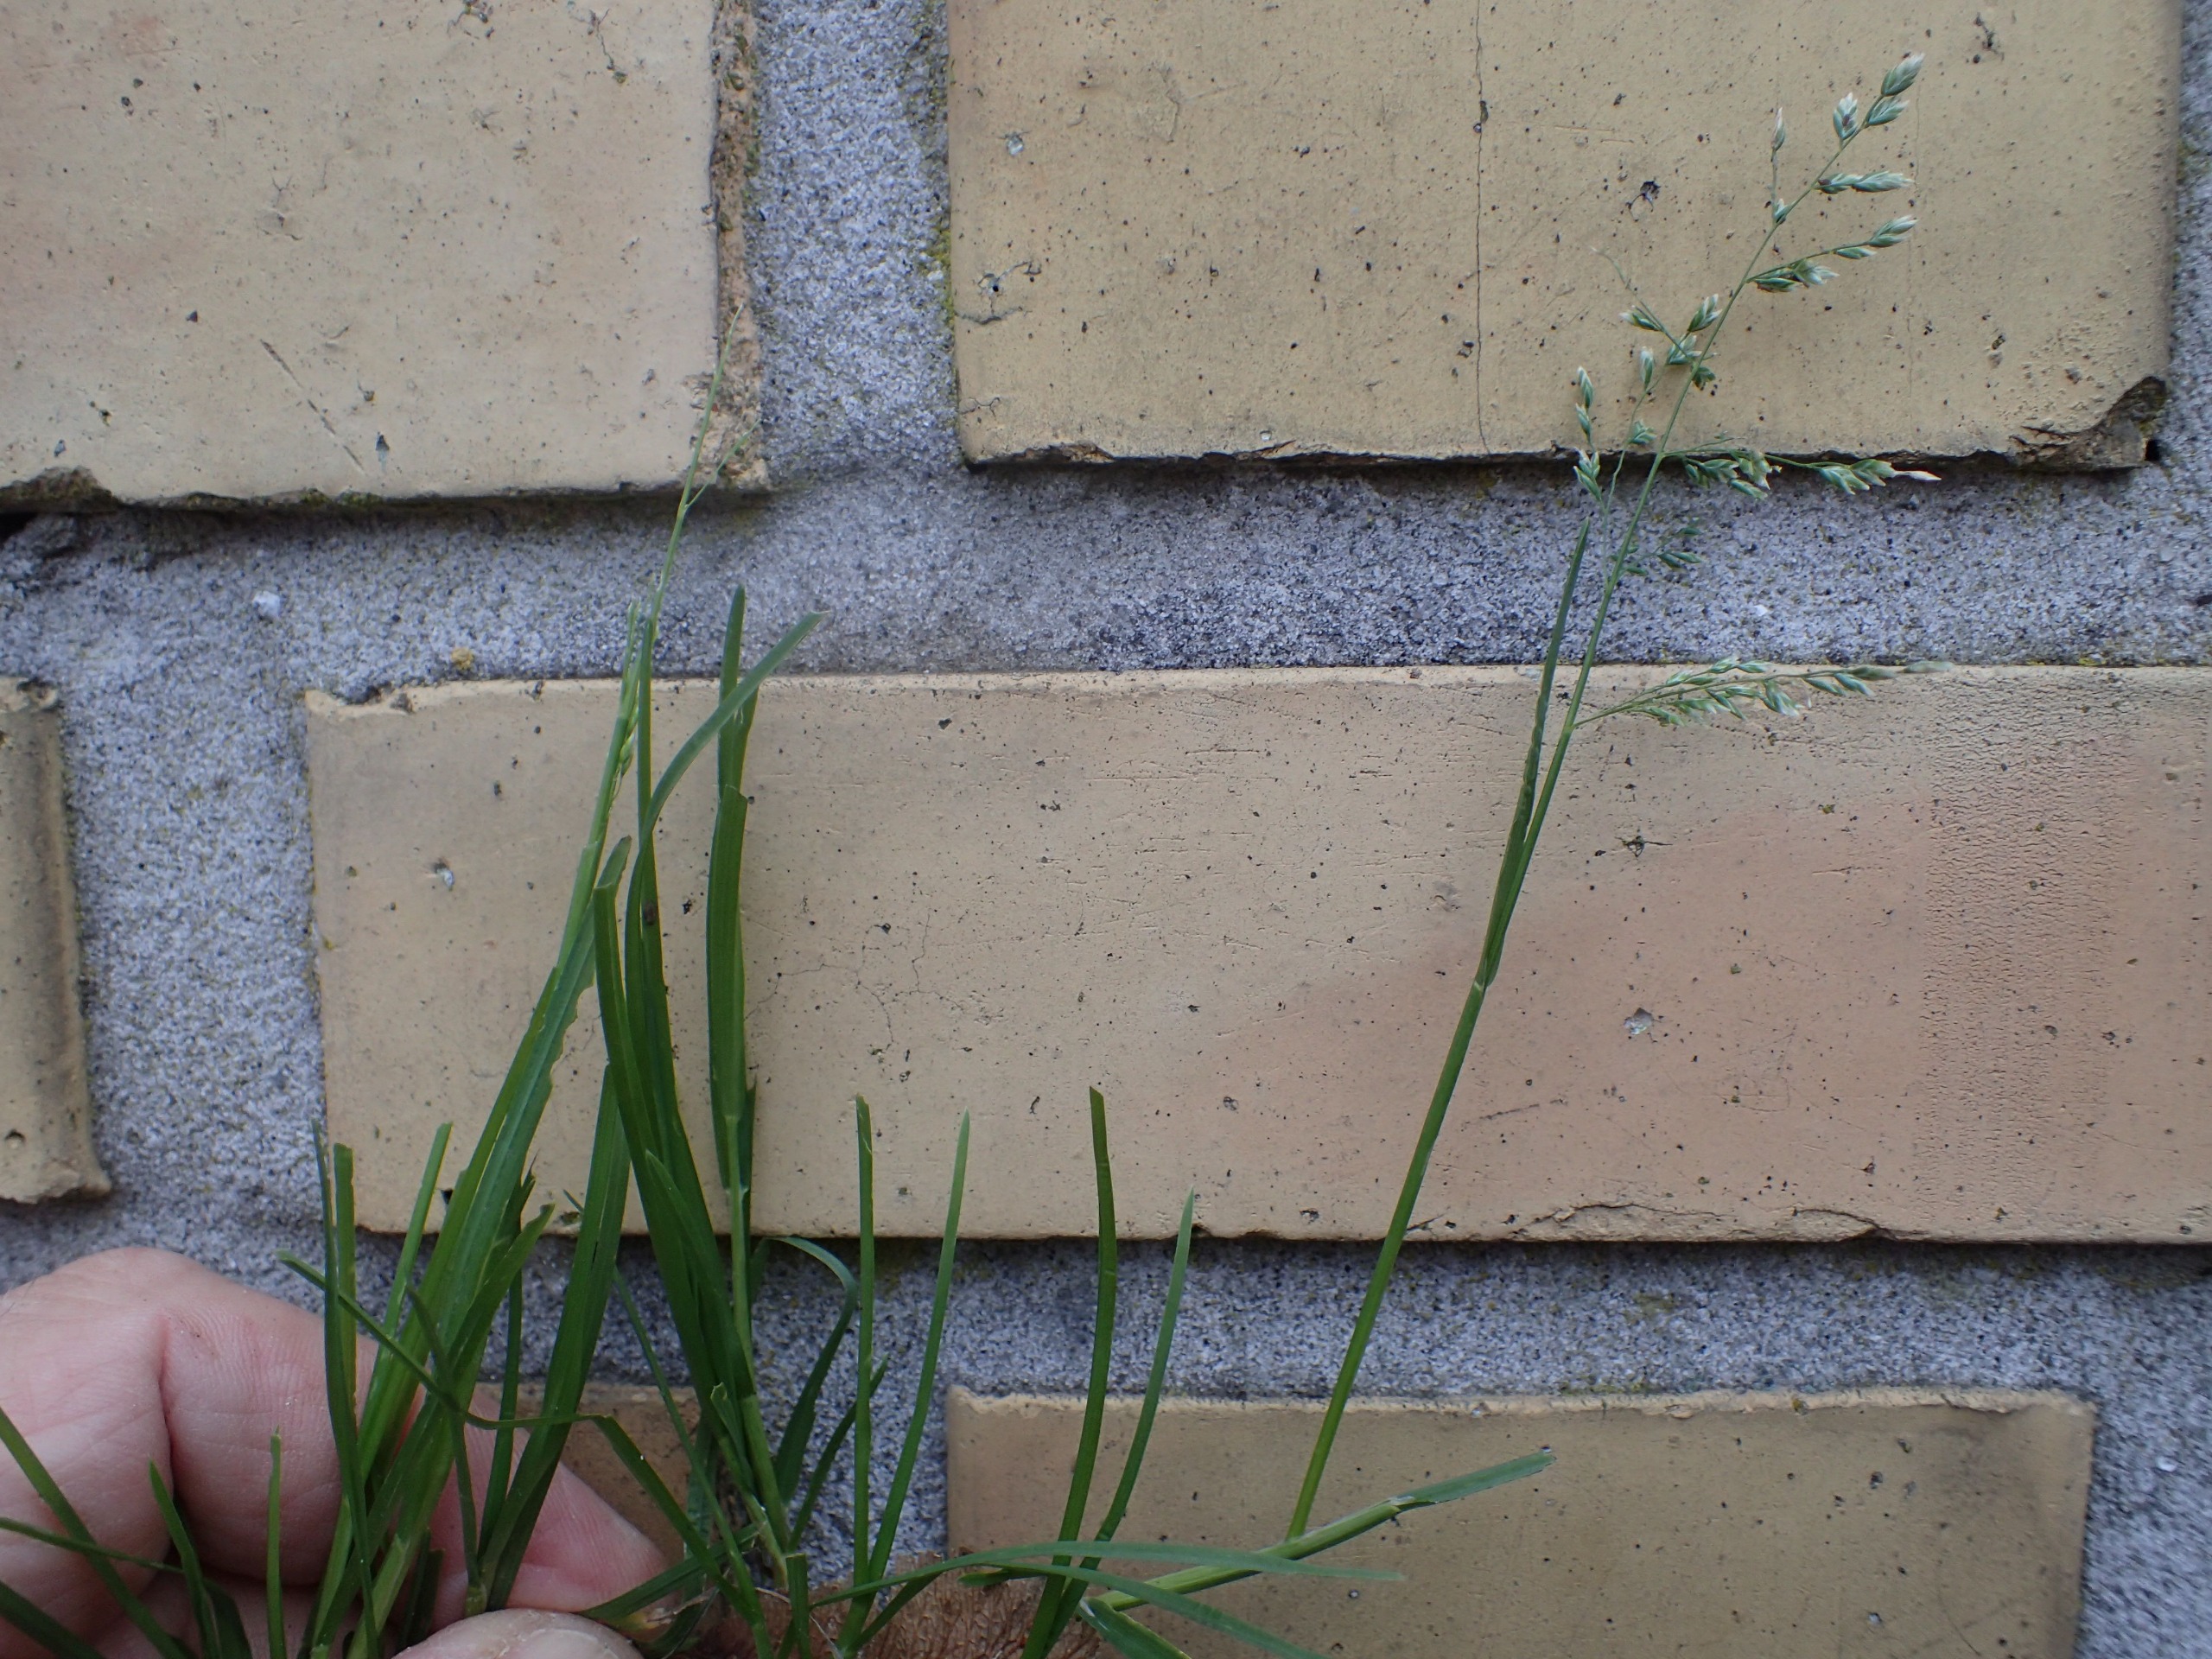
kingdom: Plantae
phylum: Tracheophyta
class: Liliopsida
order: Poales
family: Poaceae
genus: Poa
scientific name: Poa annua
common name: Enårig rapgræs
